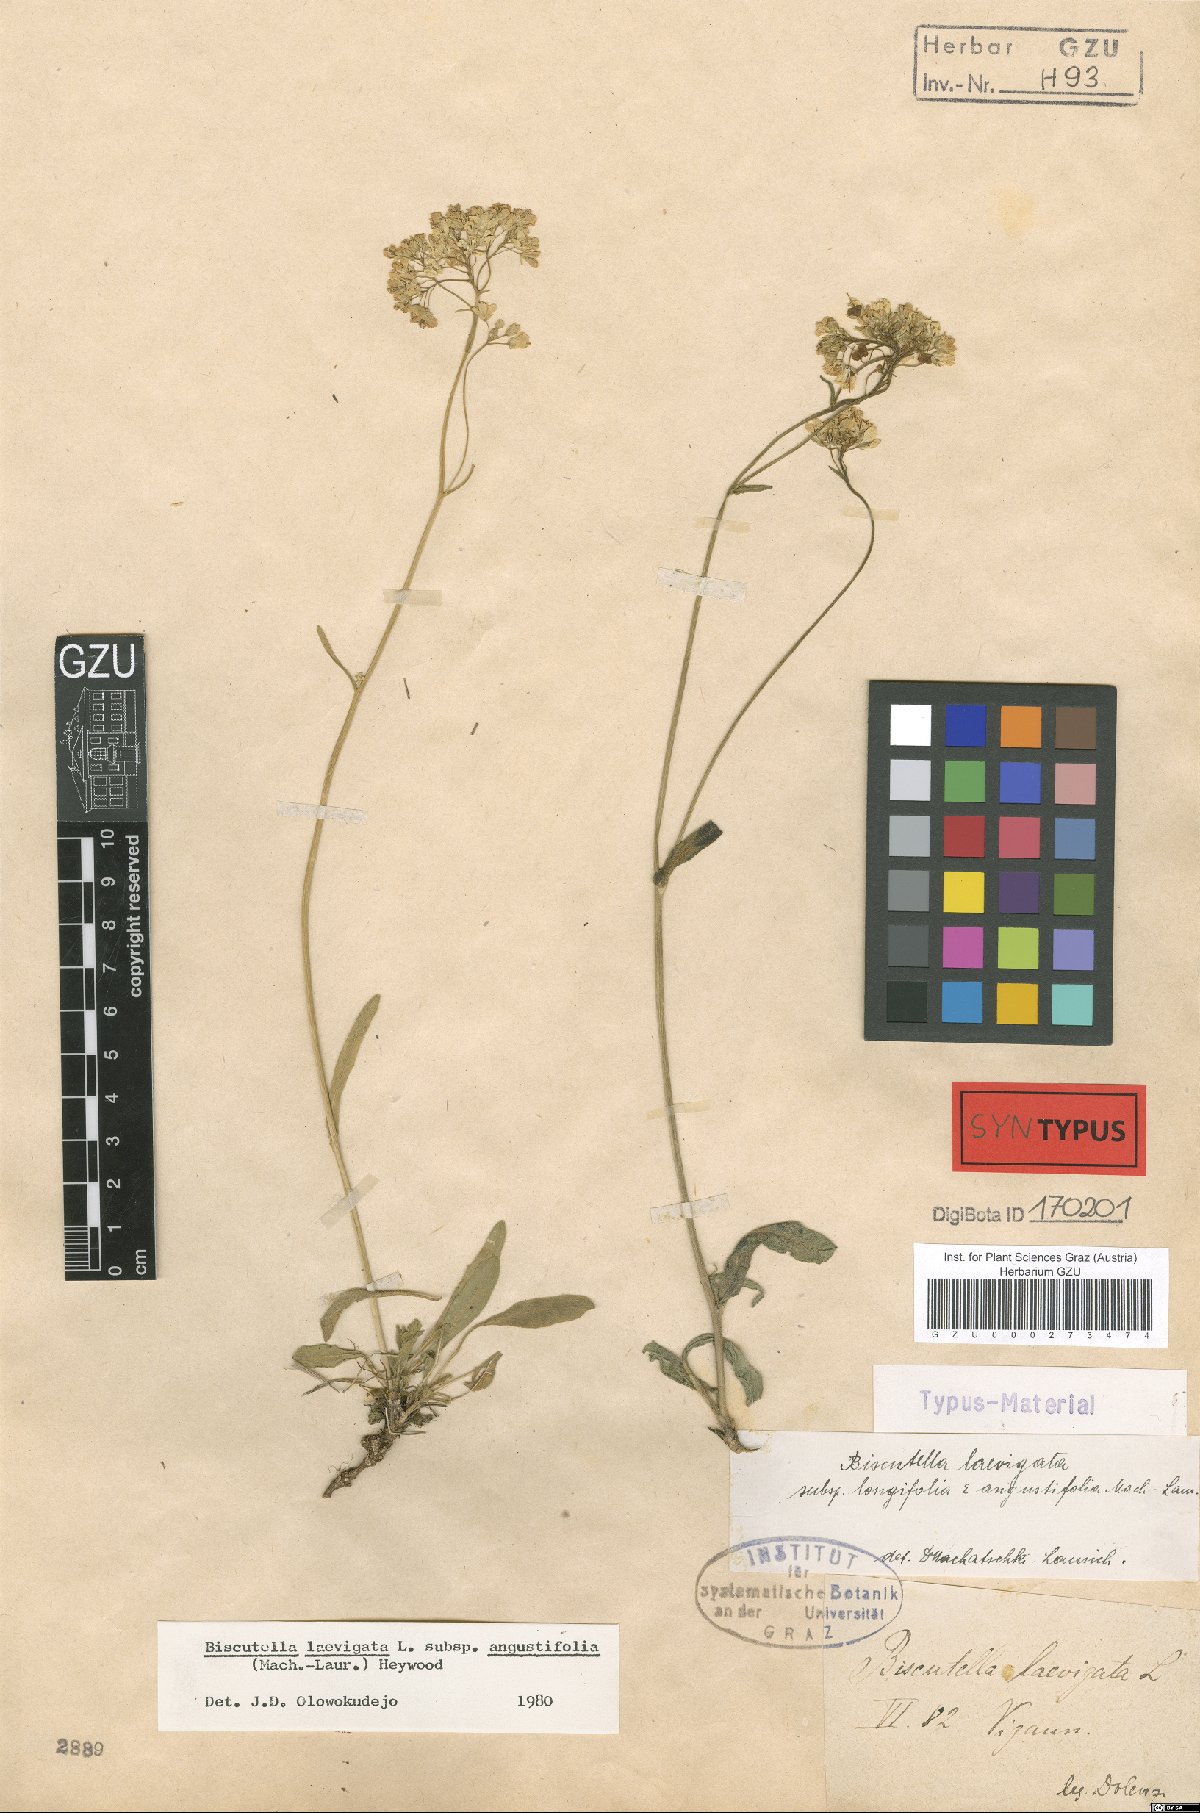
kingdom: Plantae
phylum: Tracheophyta
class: Magnoliopsida
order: Brassicales
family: Brassicaceae
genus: Biscutella
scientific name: Biscutella laevigata
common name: Buckler mustard
